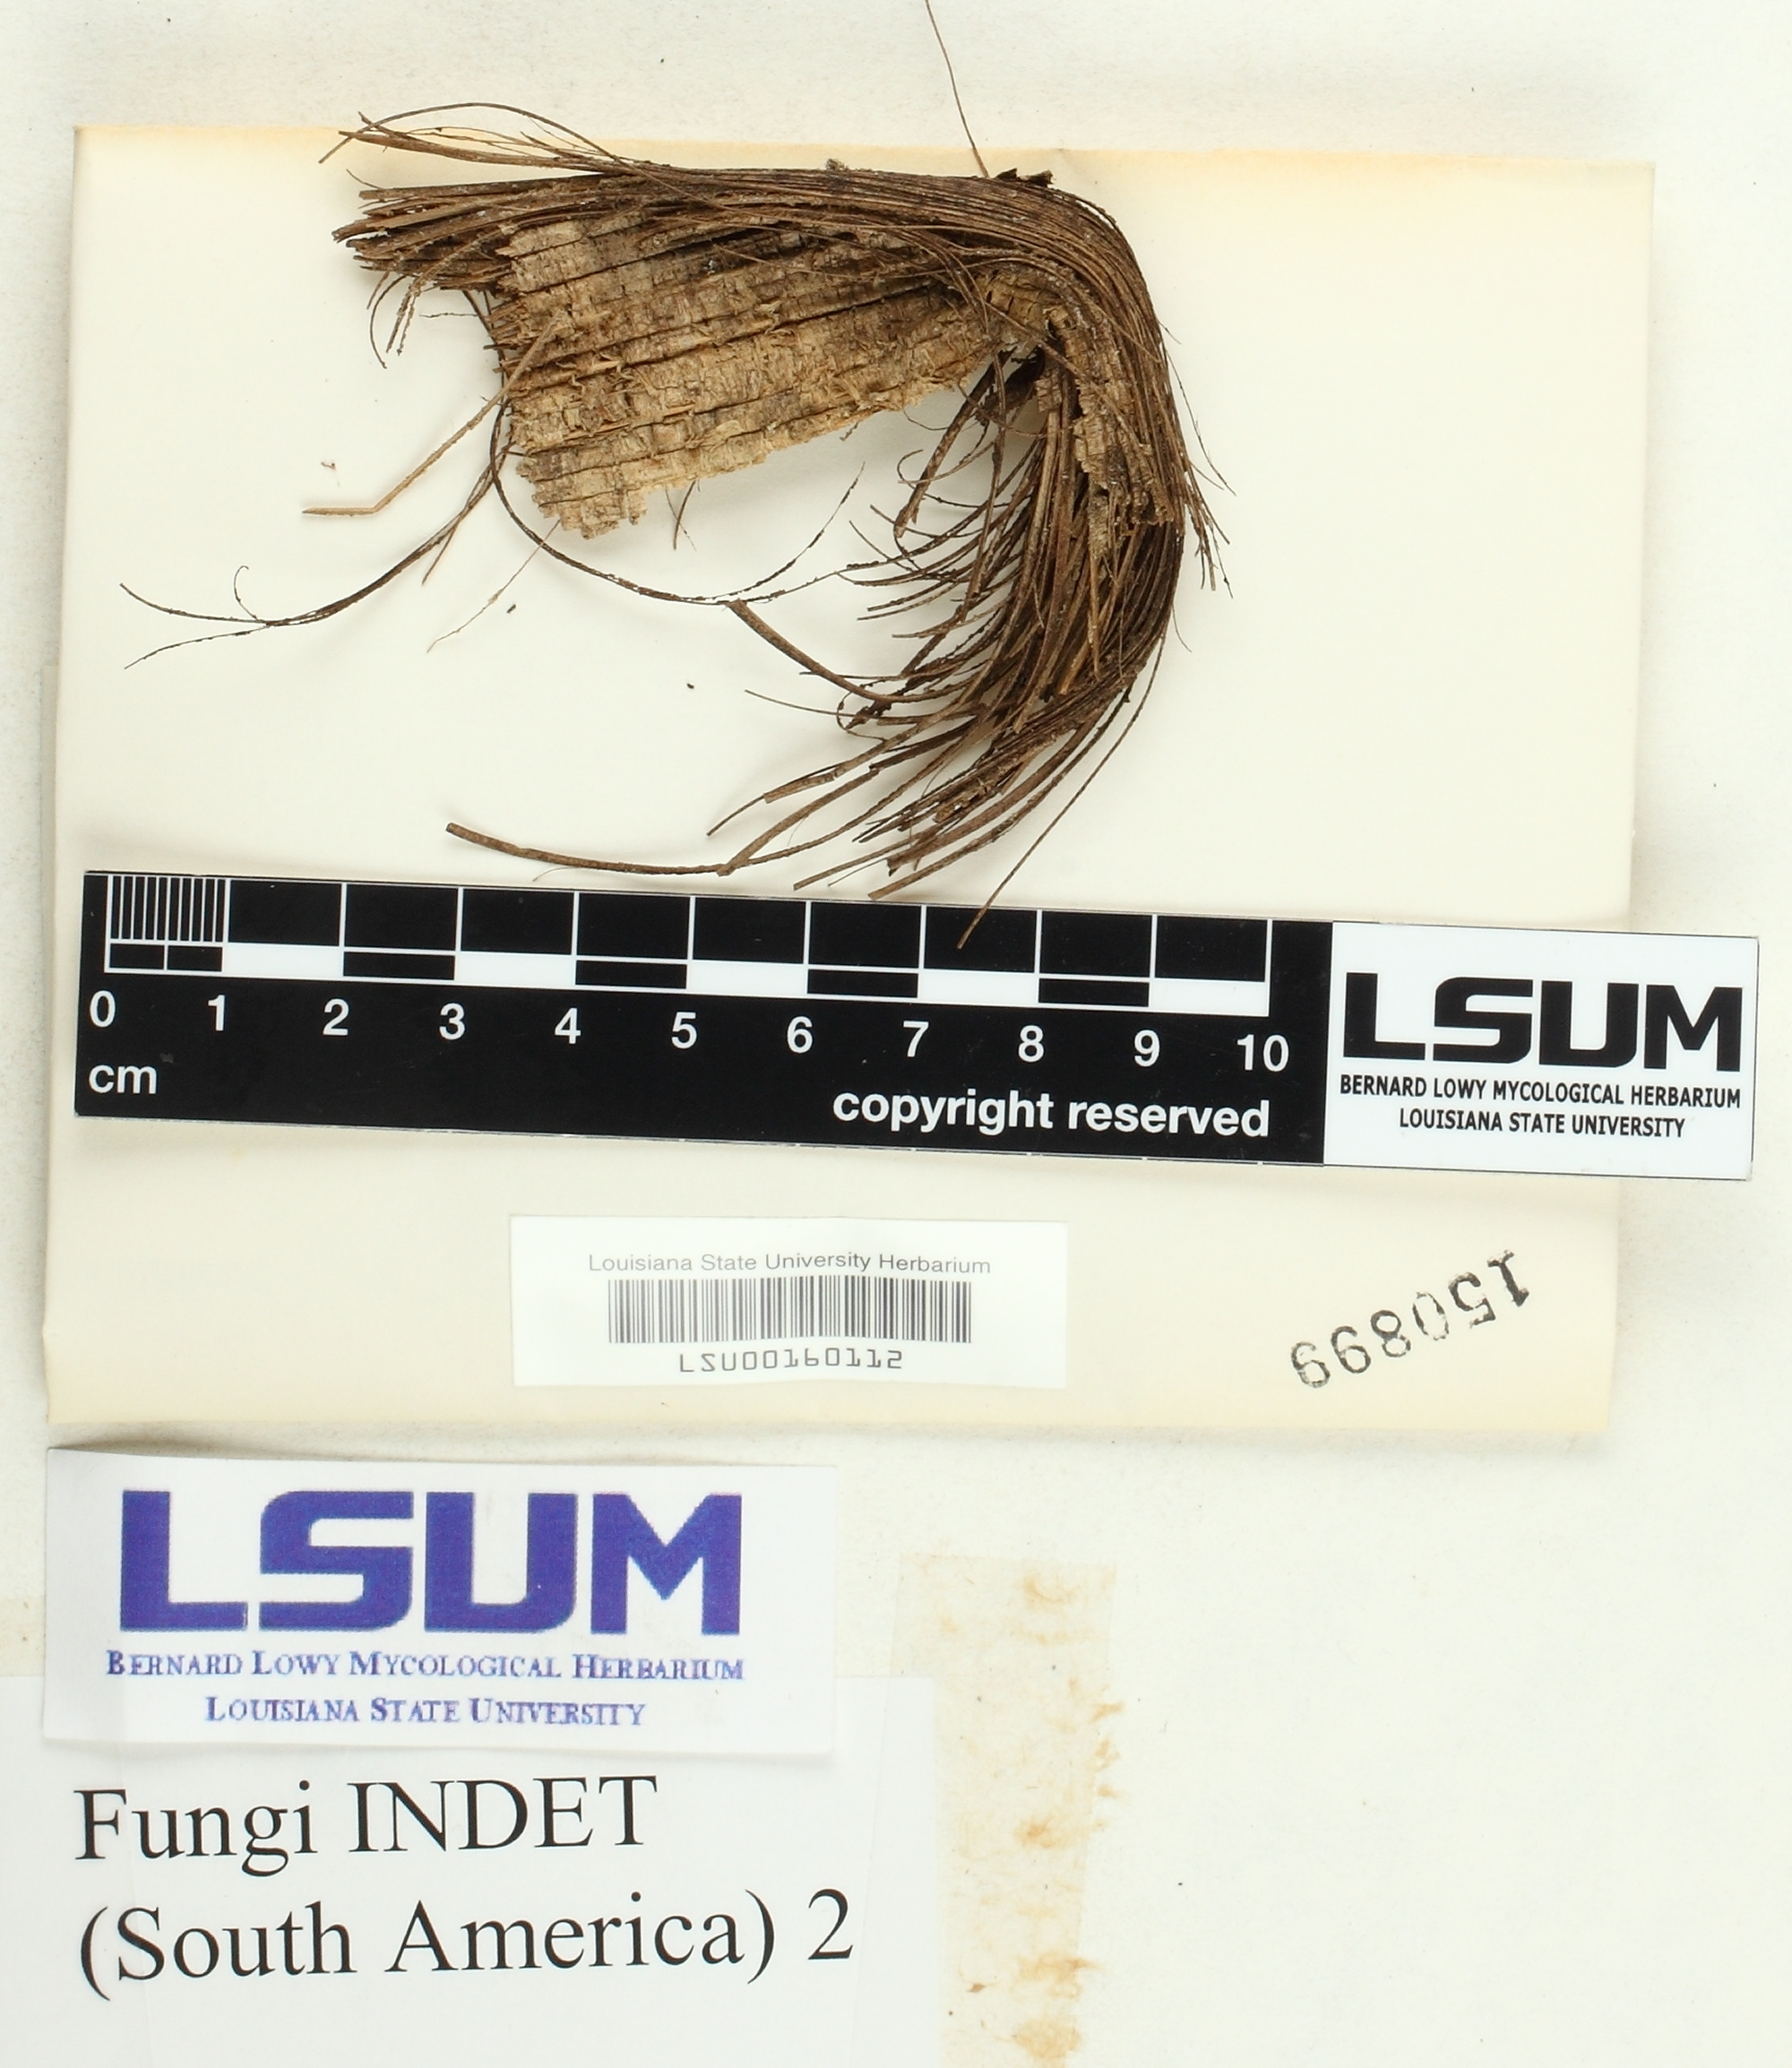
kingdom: Fungi
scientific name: Fungi
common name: Fungi
